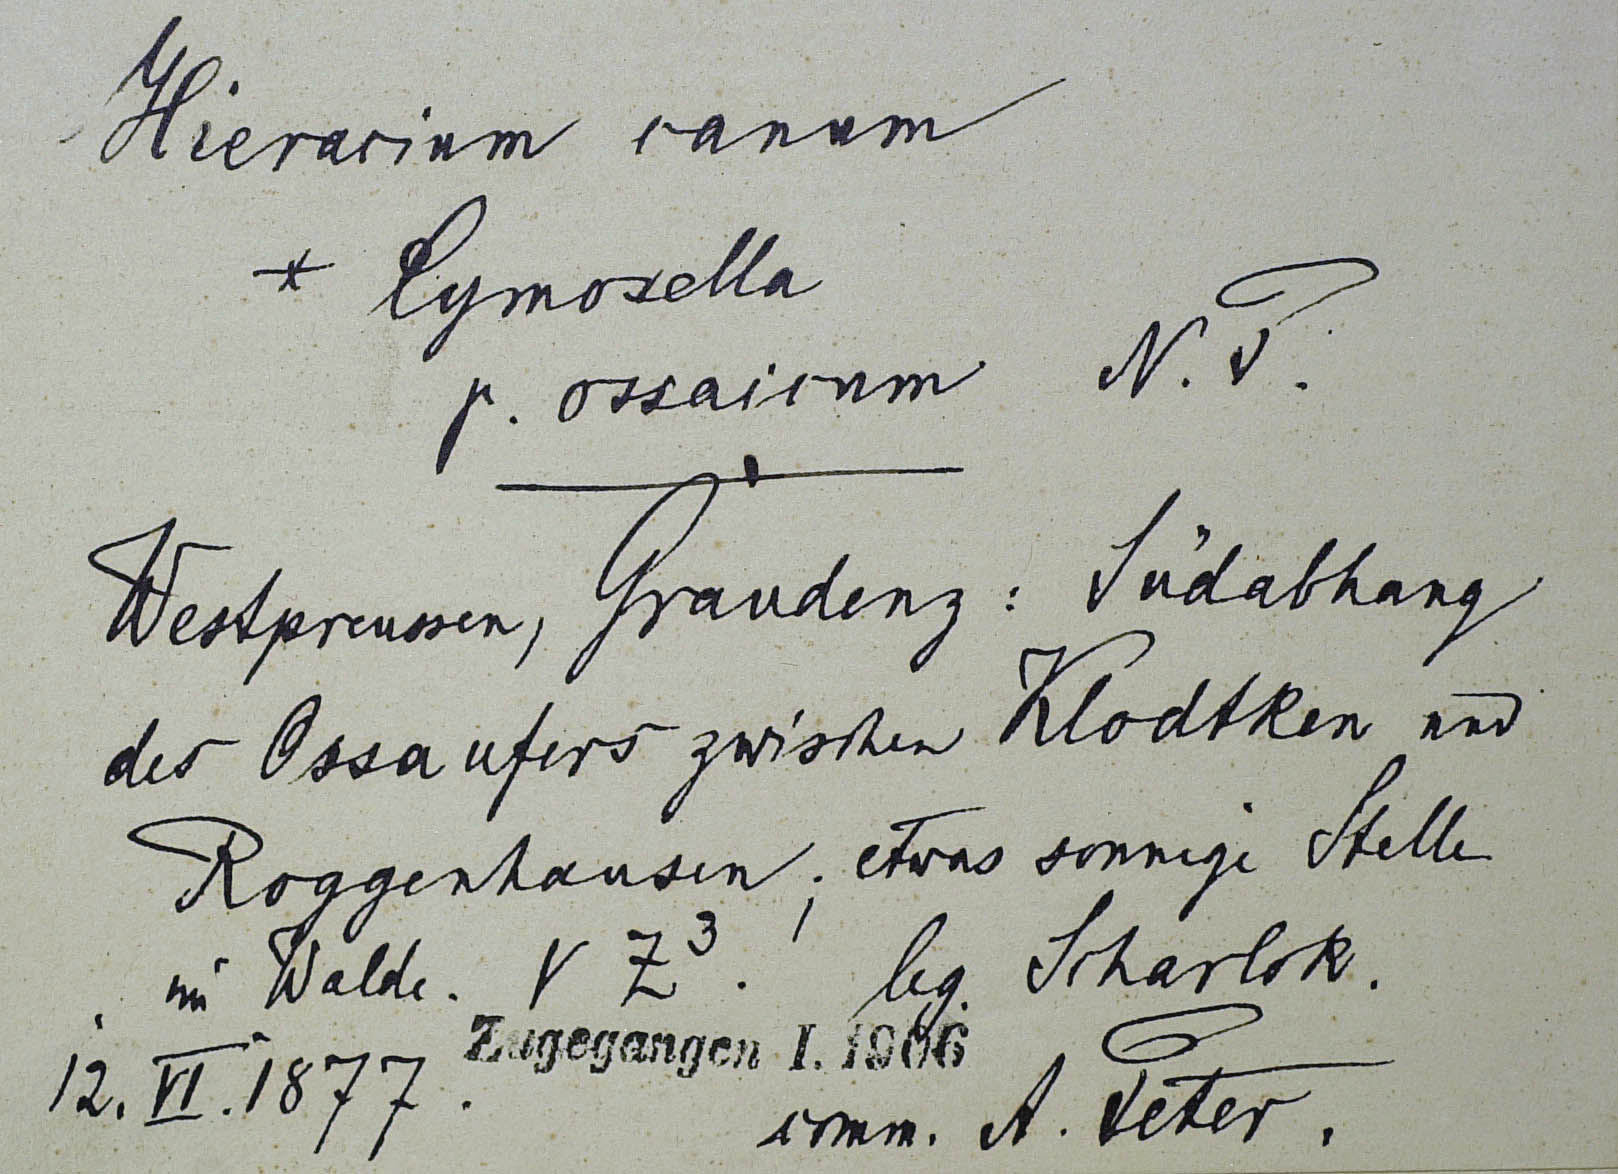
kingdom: Plantae
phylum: Tracheophyta
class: Magnoliopsida
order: Asterales
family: Asteraceae
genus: Pilosella
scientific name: Pilosella acutifolia
